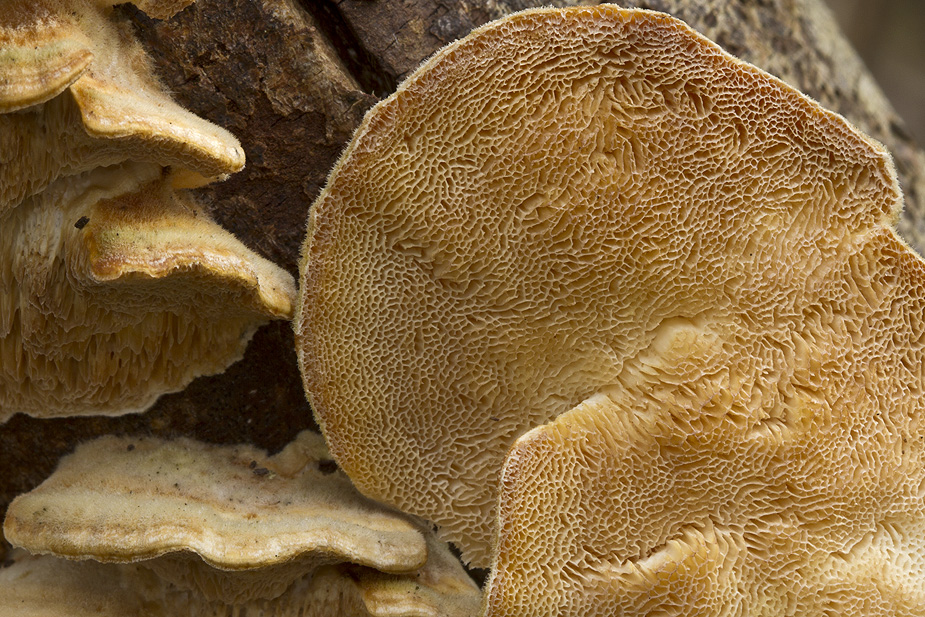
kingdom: Fungi
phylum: Basidiomycota
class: Agaricomycetes
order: Polyporales
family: Polyporaceae
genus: Trametes
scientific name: Trametes
